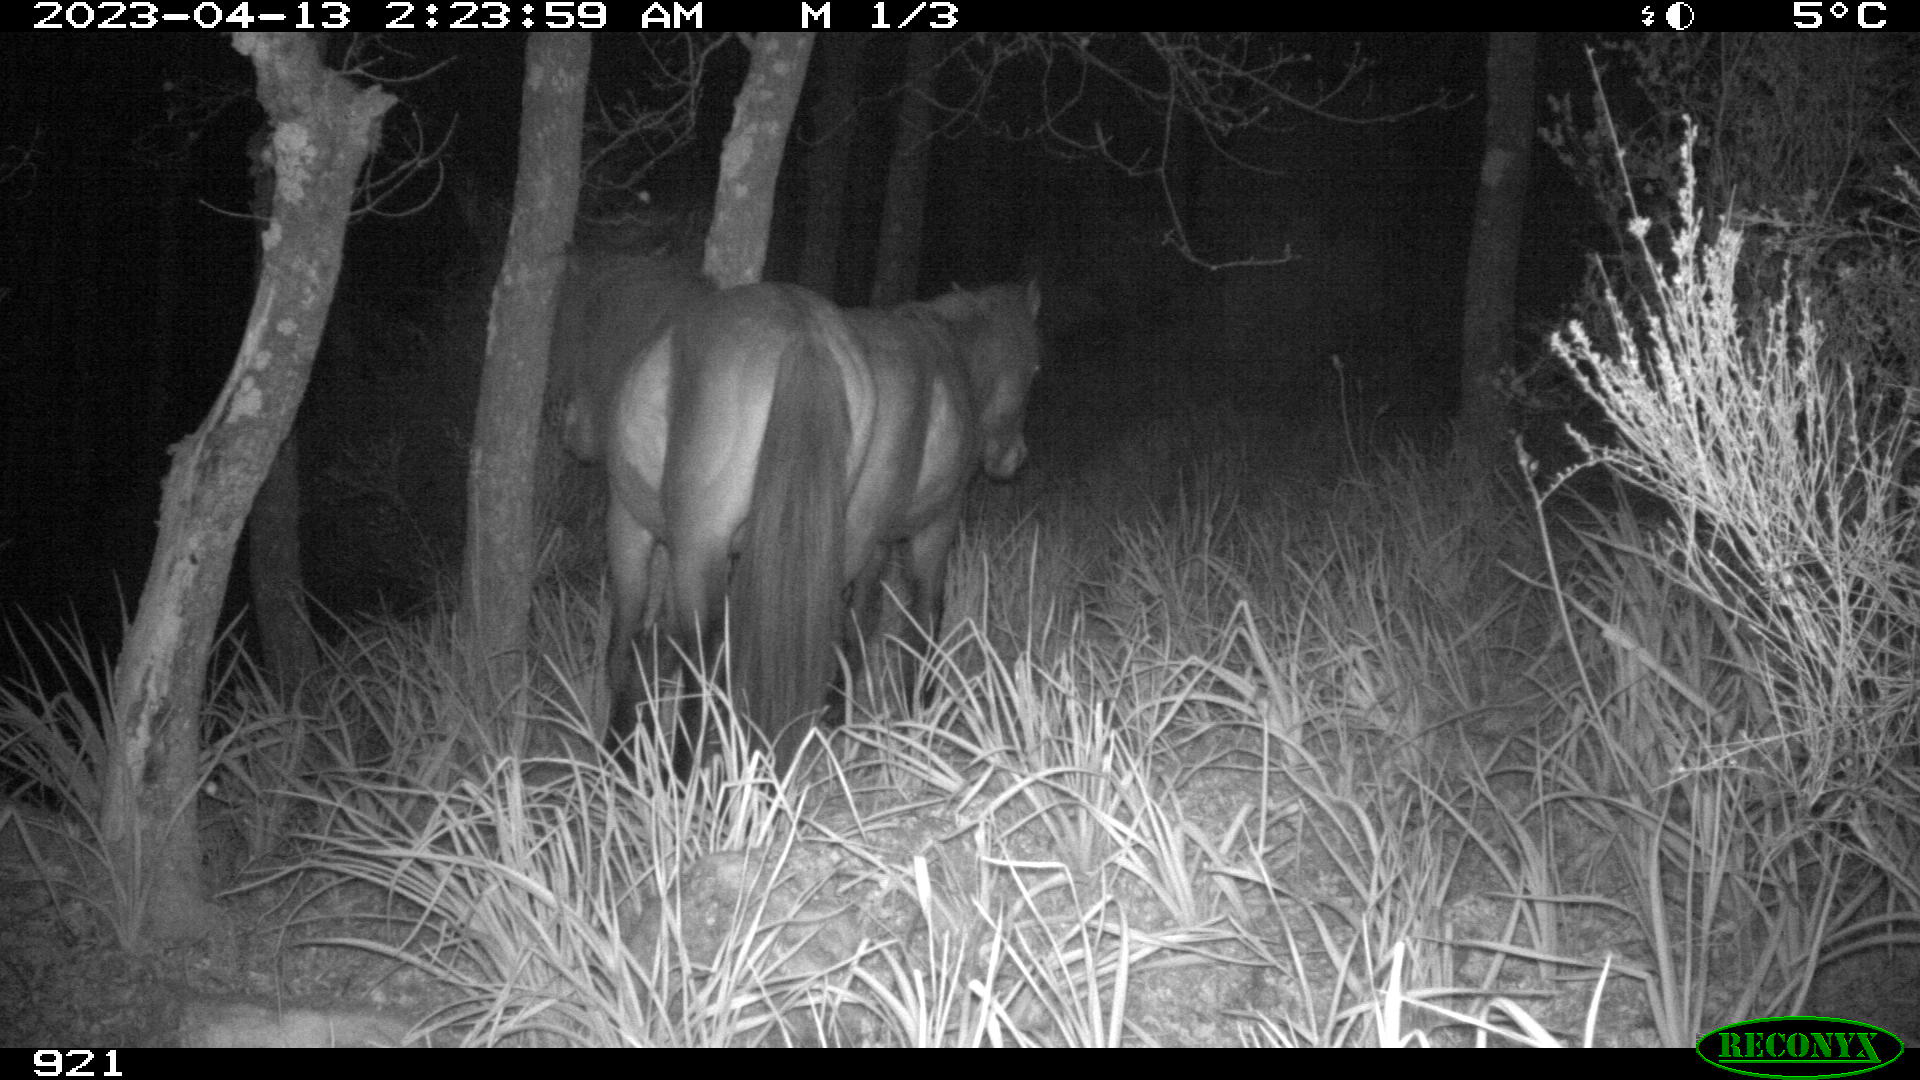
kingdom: Animalia
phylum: Chordata
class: Mammalia
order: Perissodactyla
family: Equidae
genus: Equus
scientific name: Equus caballus
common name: Horse
